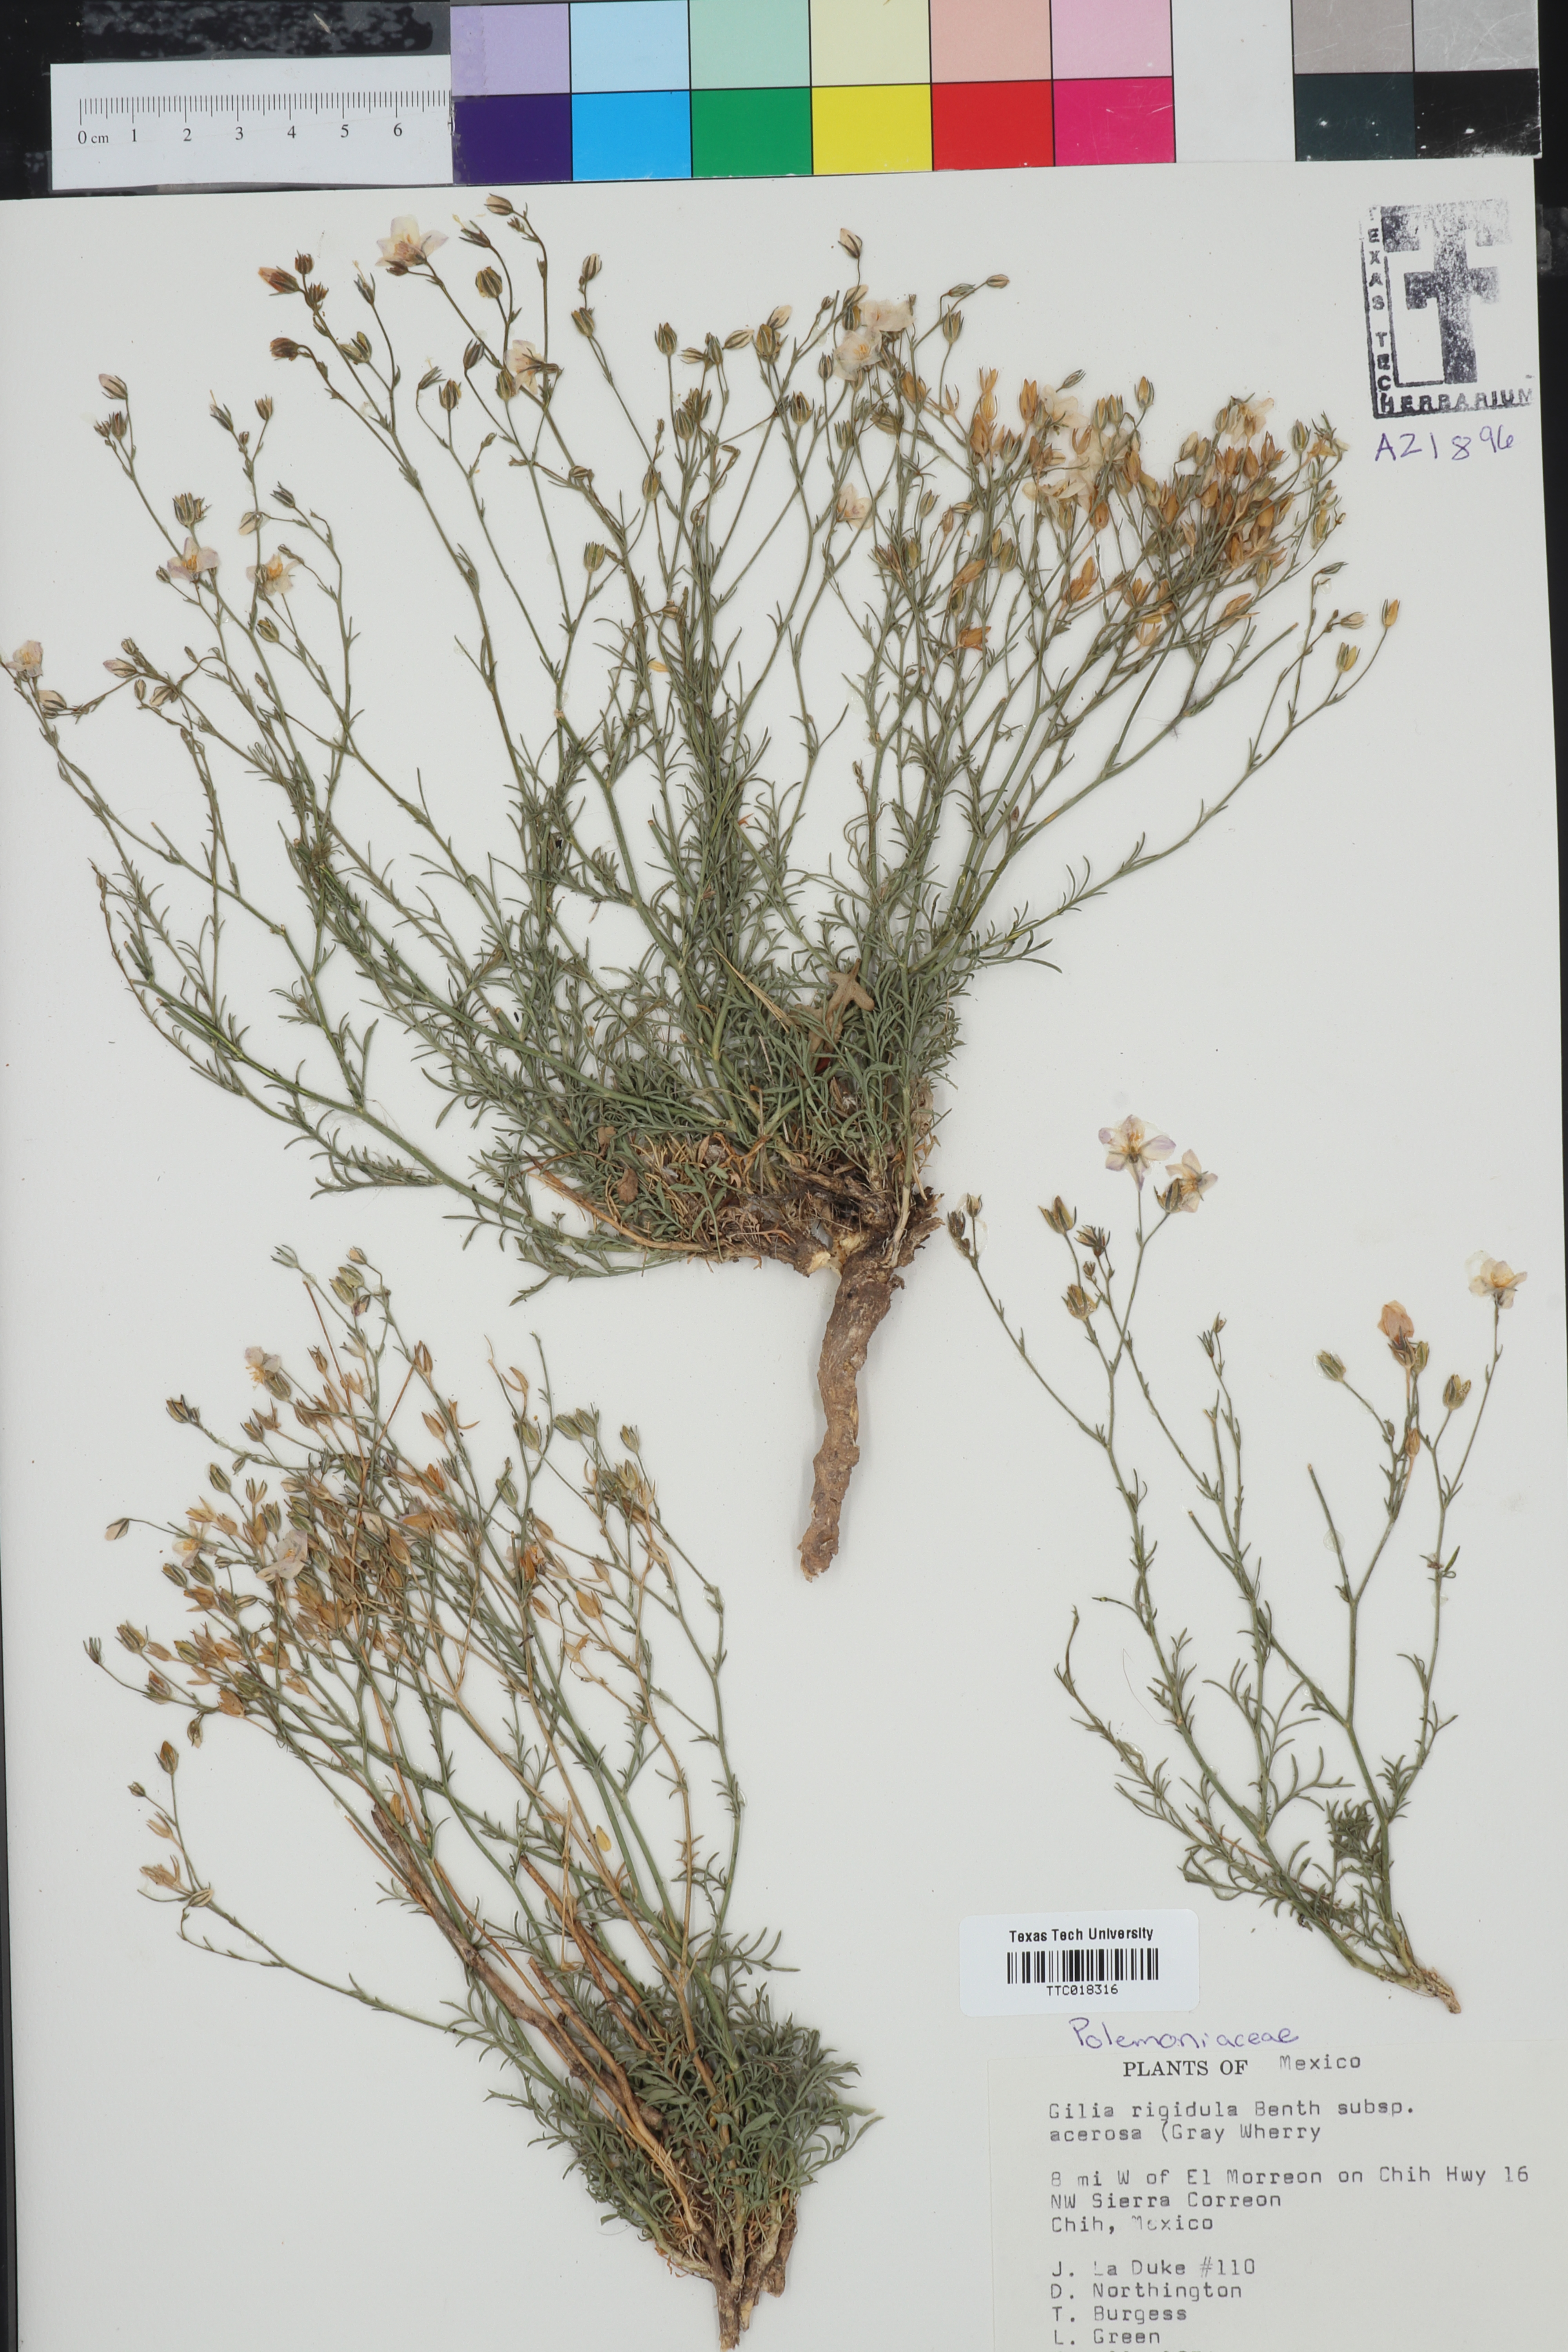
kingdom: Plantae
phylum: Tracheophyta
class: Magnoliopsida
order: Ericales
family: Polemoniaceae
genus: Giliastrum
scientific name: Giliastrum rigidulum
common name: Bluebowls
